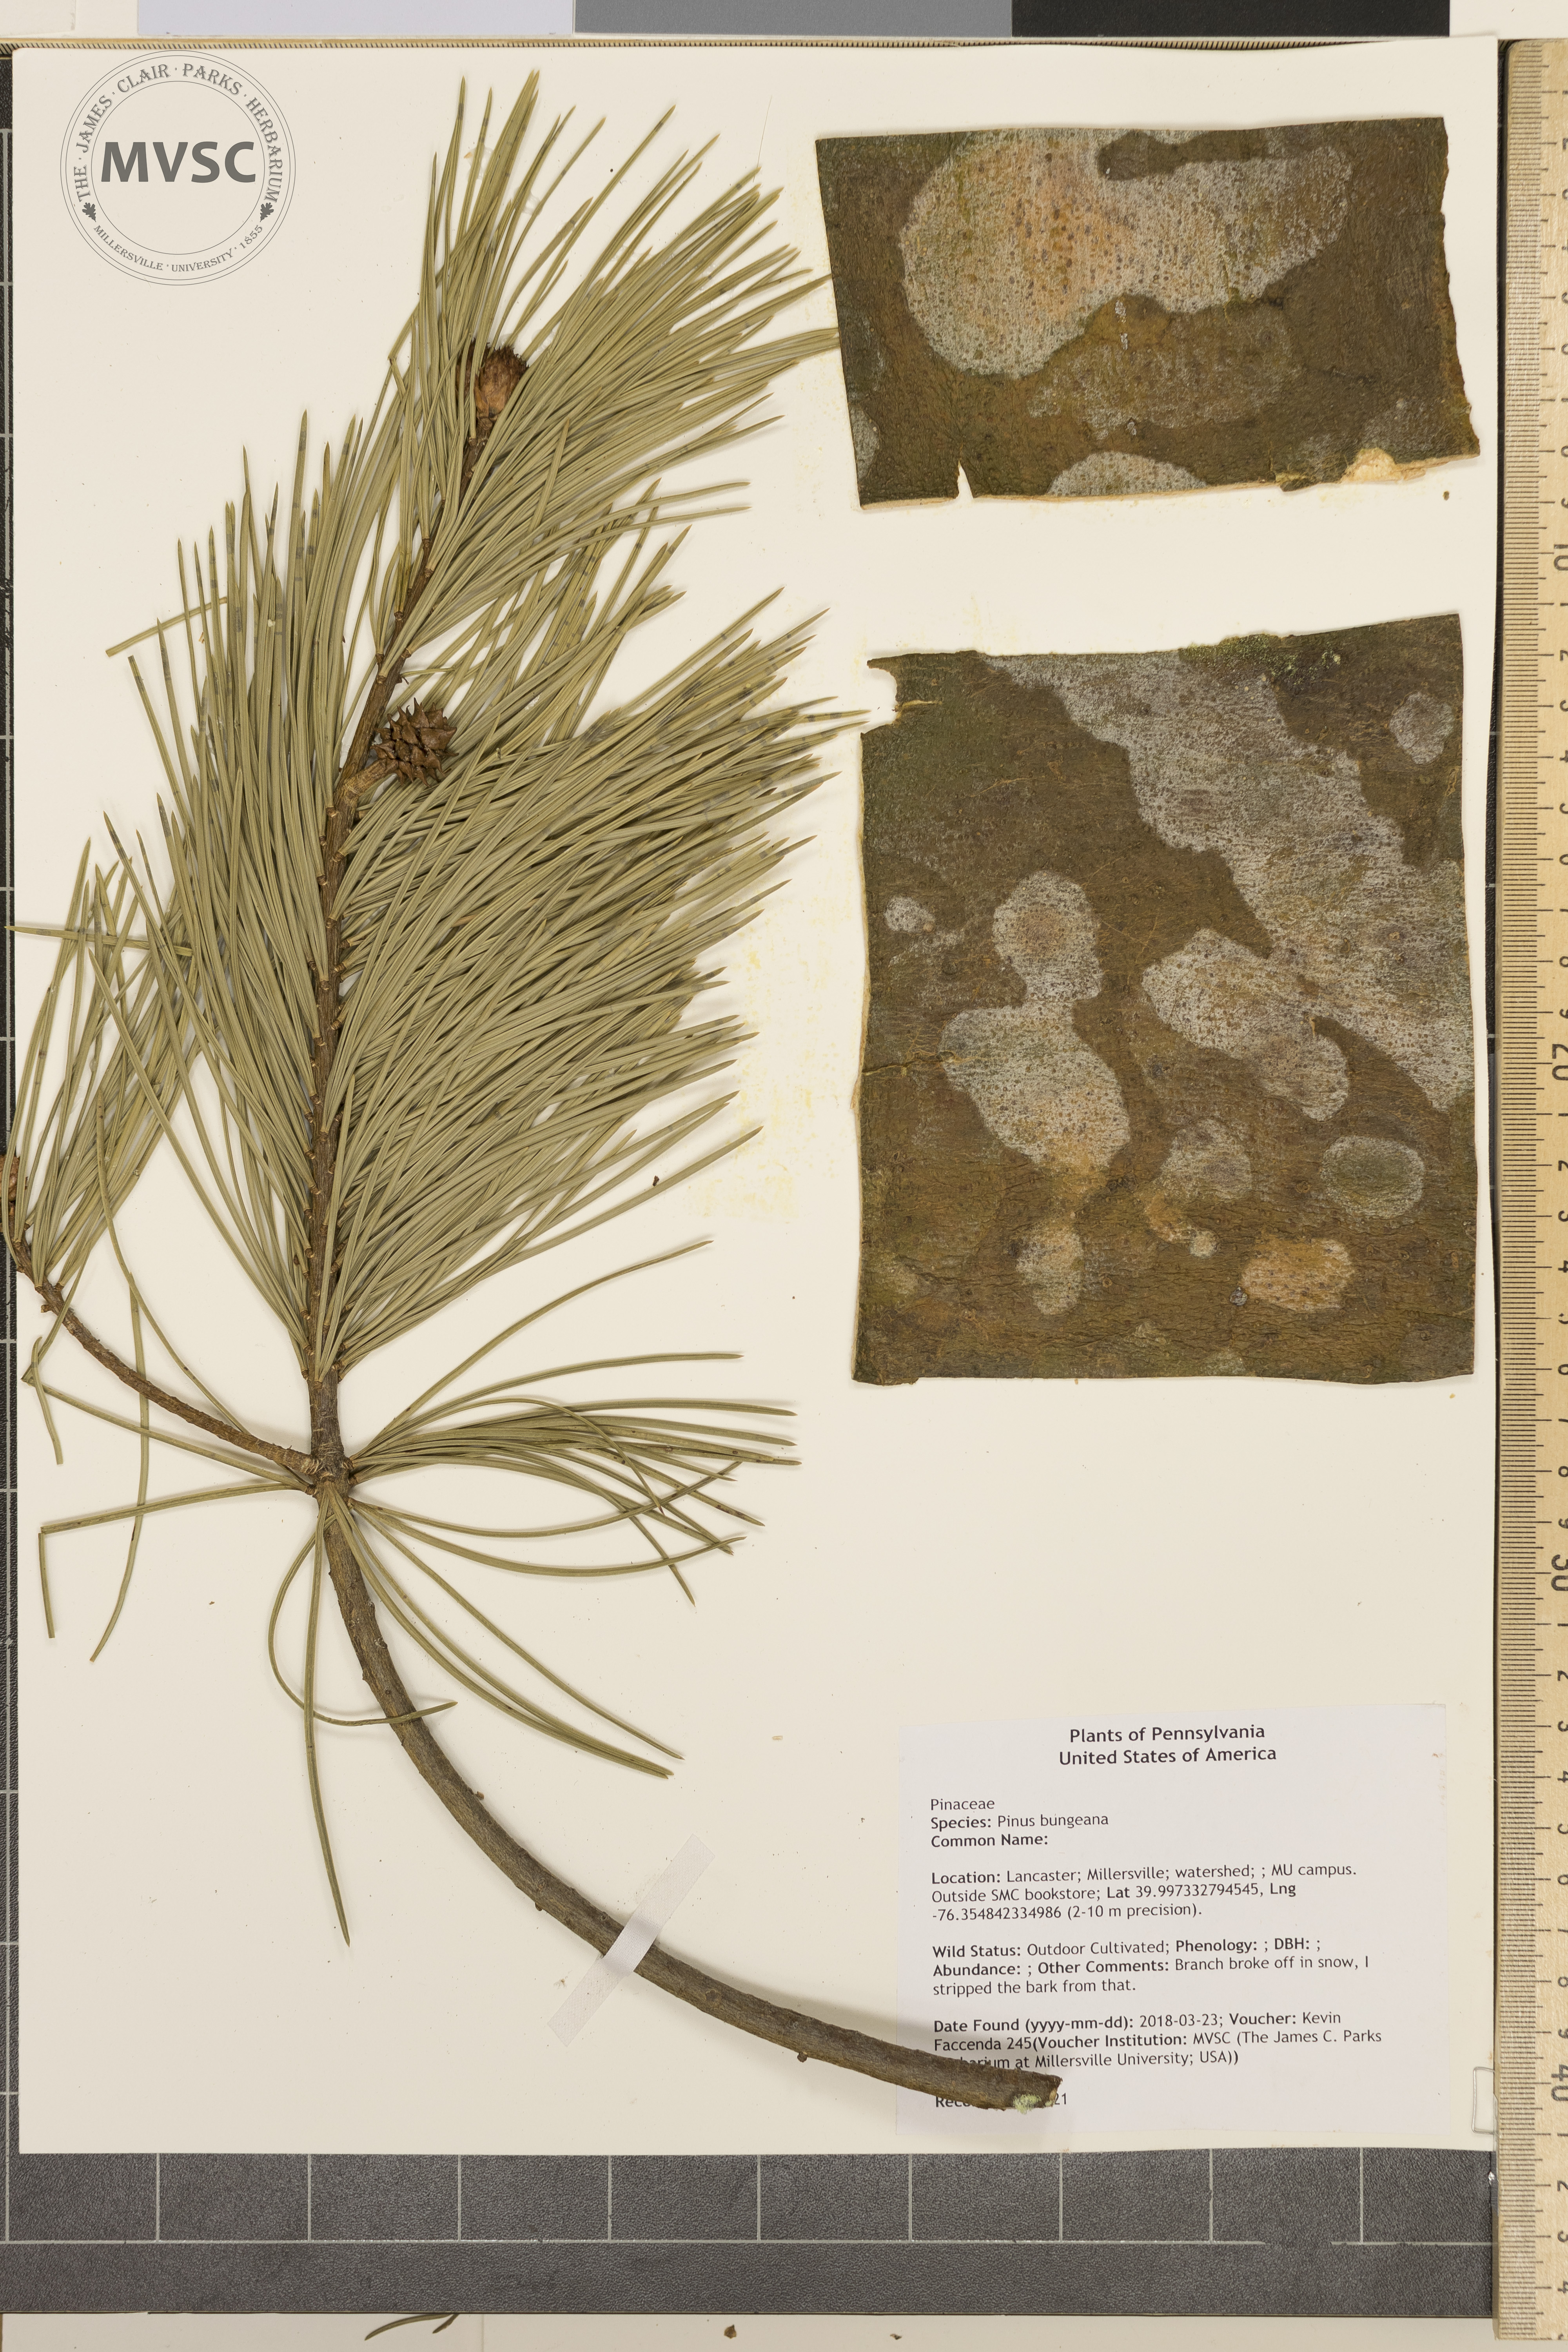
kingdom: Plantae
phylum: Tracheophyta
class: Pinopsida
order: Pinales
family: Pinaceae
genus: Pinus
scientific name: Pinus bungeana
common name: Lace-bark pine
